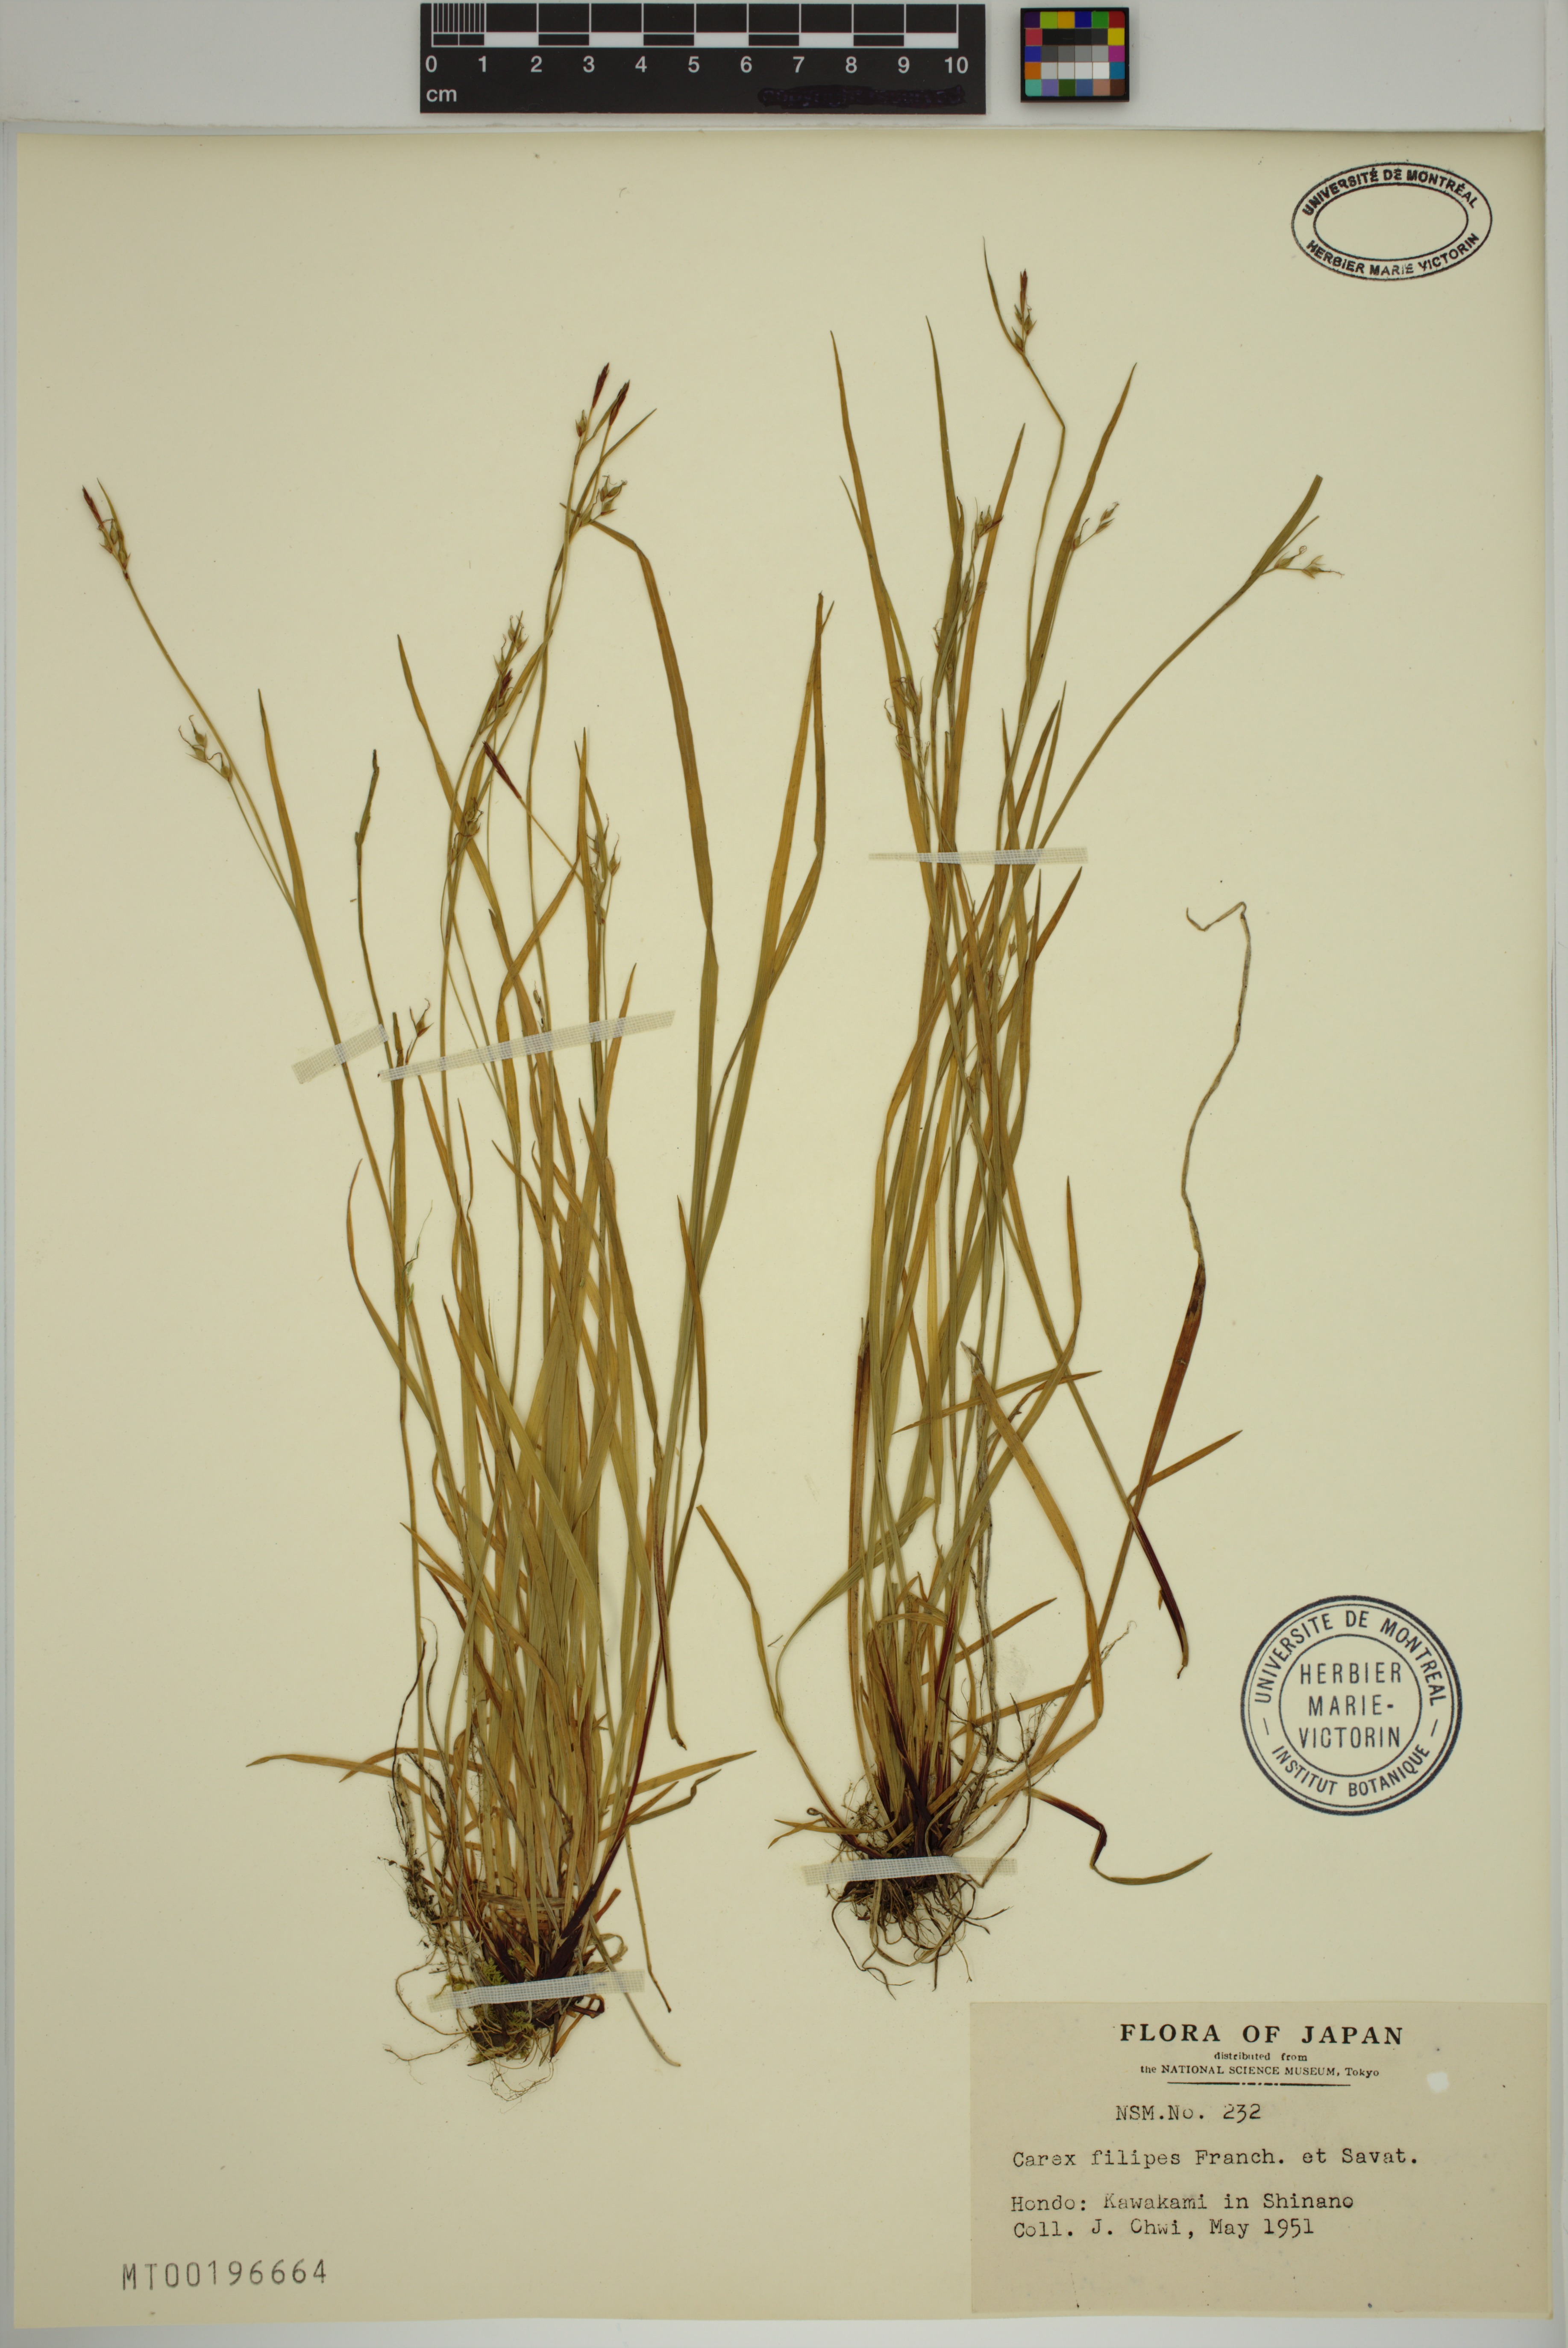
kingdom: Plantae
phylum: Tracheophyta
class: Liliopsida
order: Poales
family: Cyperaceae
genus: Carex
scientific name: Carex filipes
